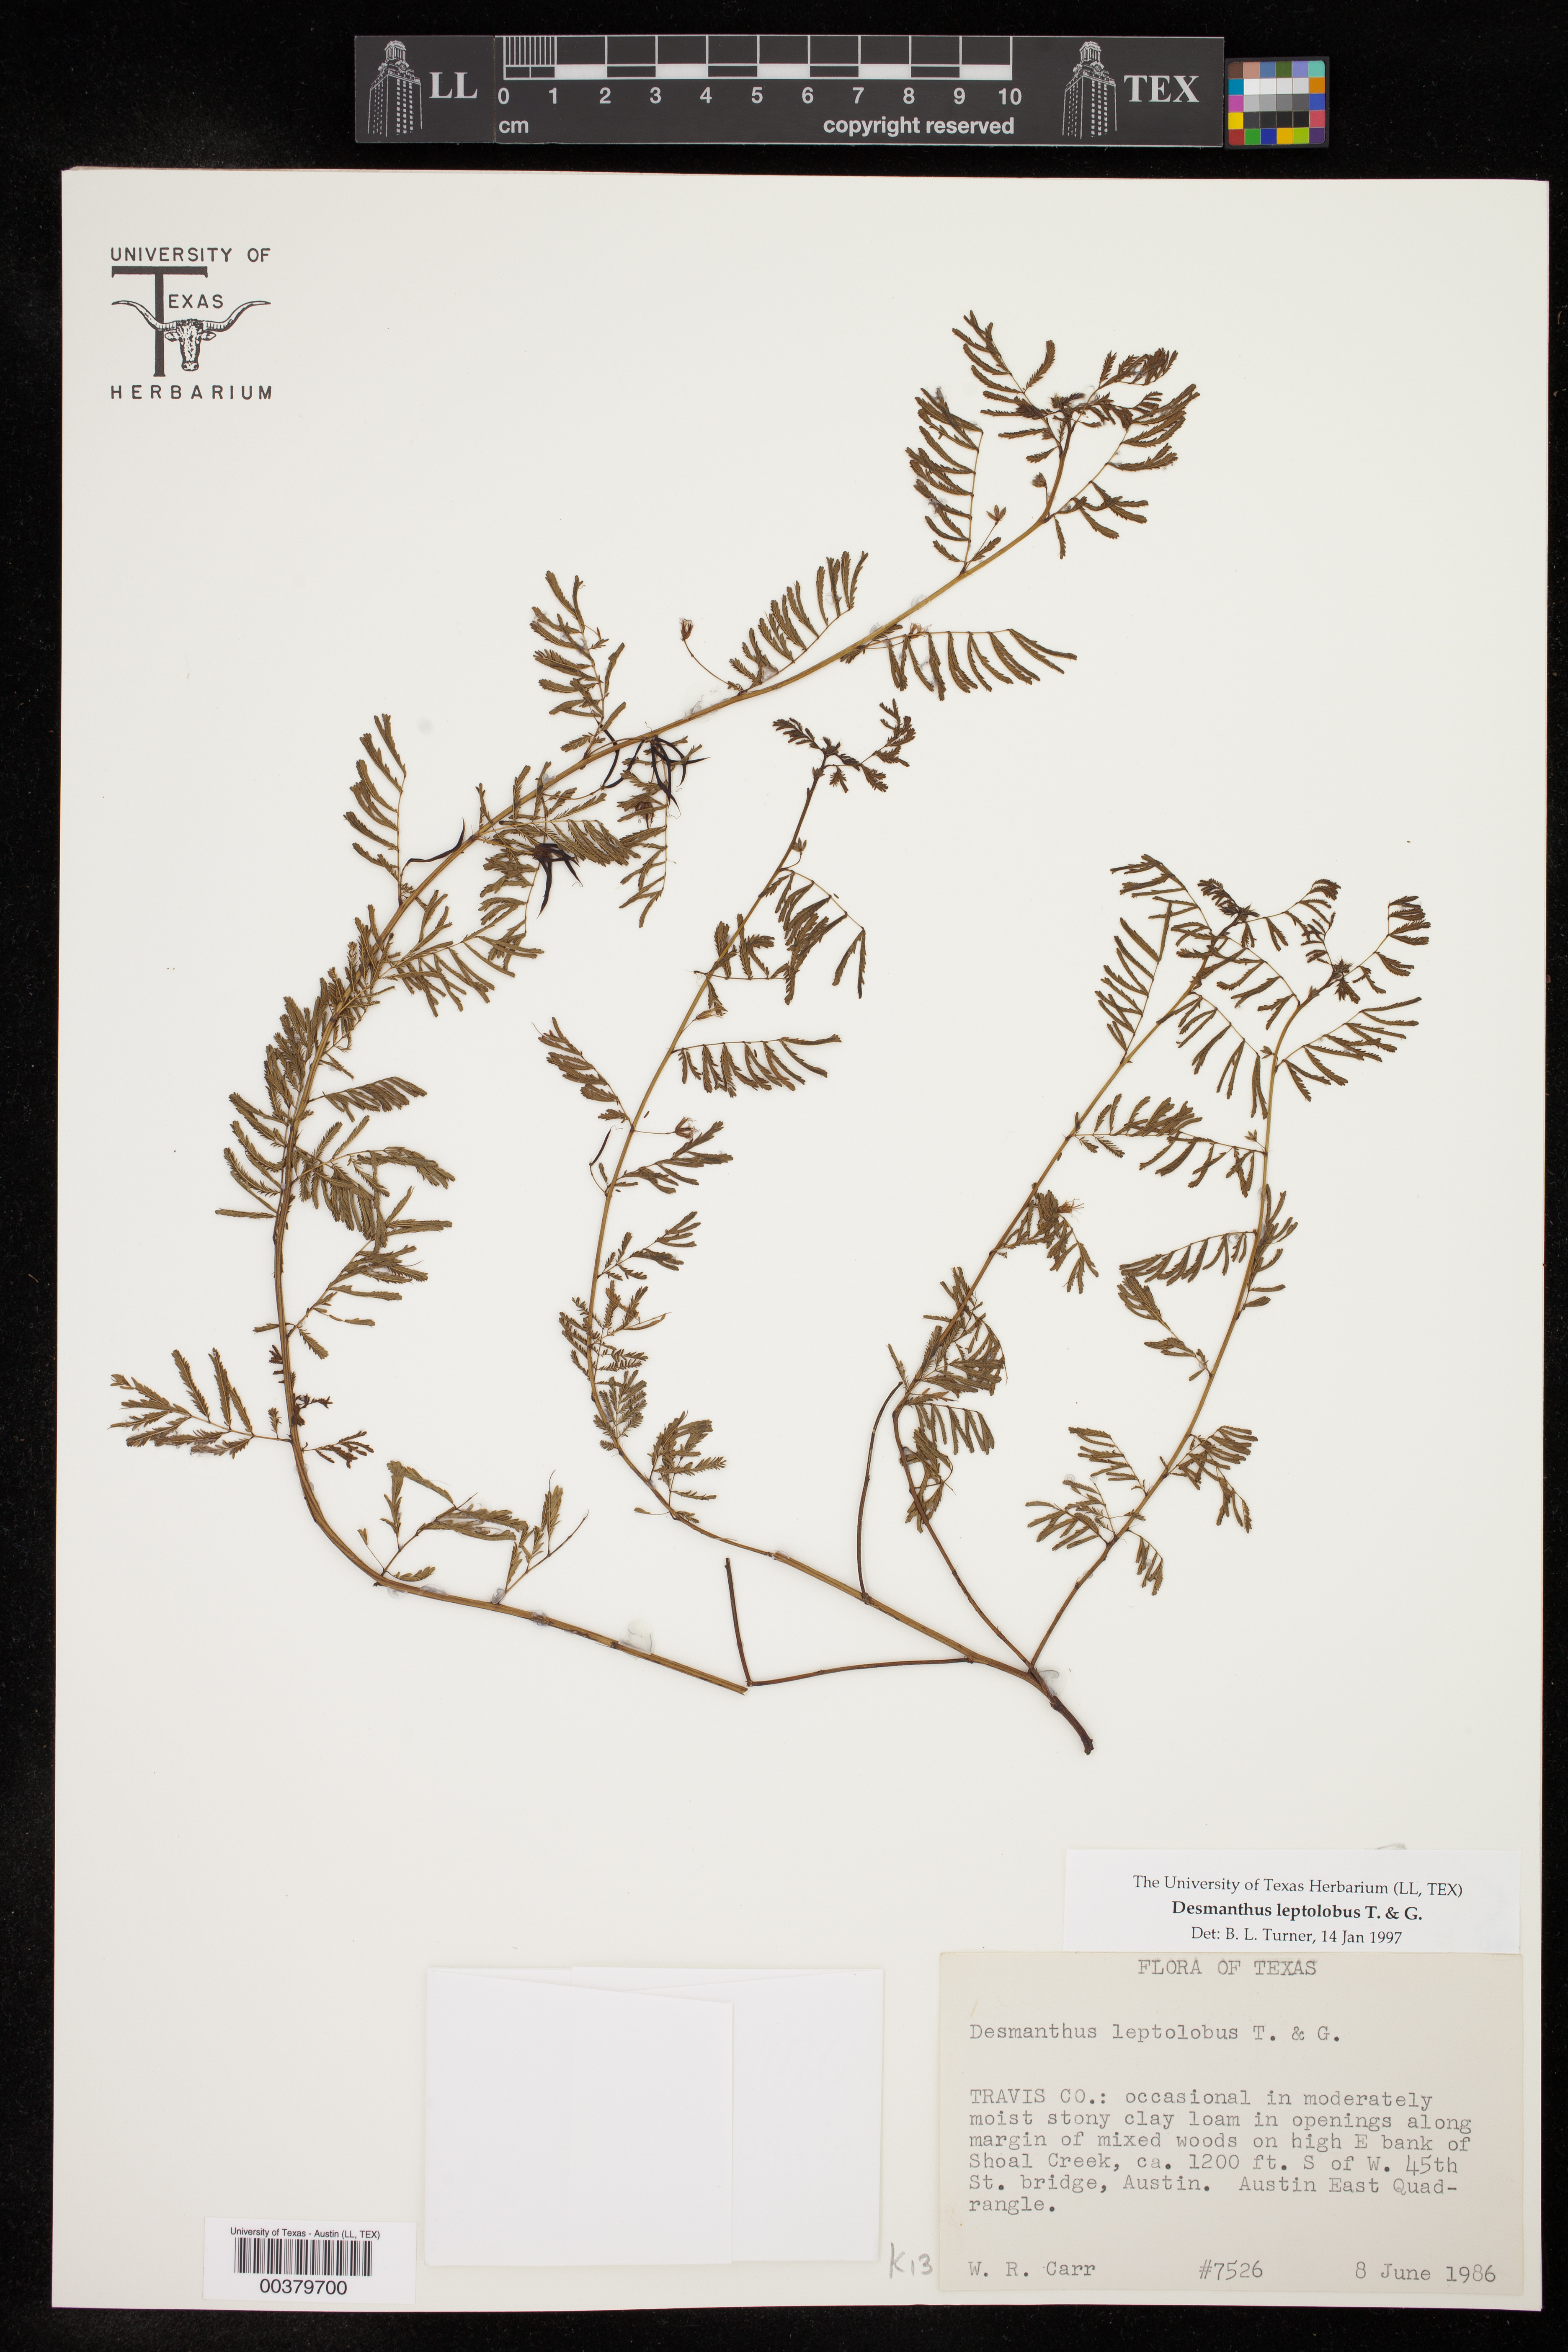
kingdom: Plantae
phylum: Tracheophyta
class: Magnoliopsida
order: Fabales
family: Fabaceae
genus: Desmanthus
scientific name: Desmanthus leptolobus
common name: Prairie-mimosa
